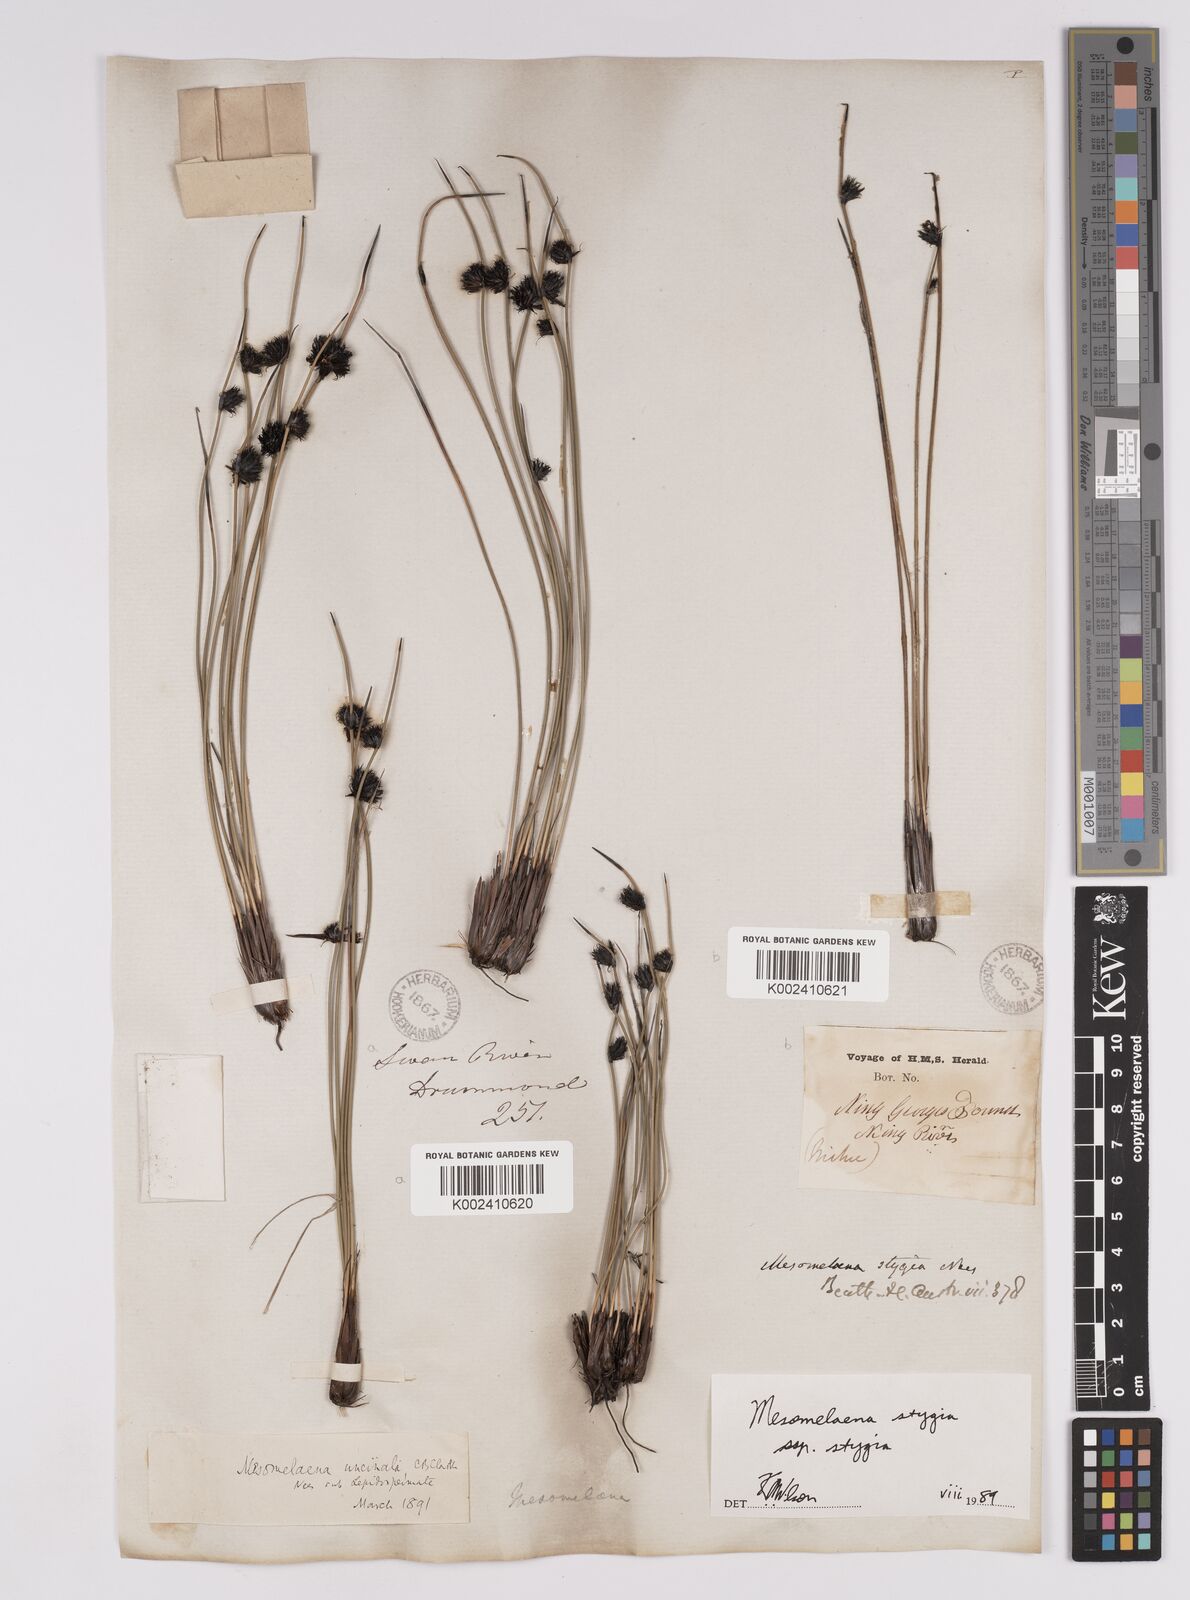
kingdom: Plantae
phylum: Tracheophyta
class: Liliopsida
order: Poales
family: Cyperaceae
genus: Mesomelaena
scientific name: Mesomelaena stygia
